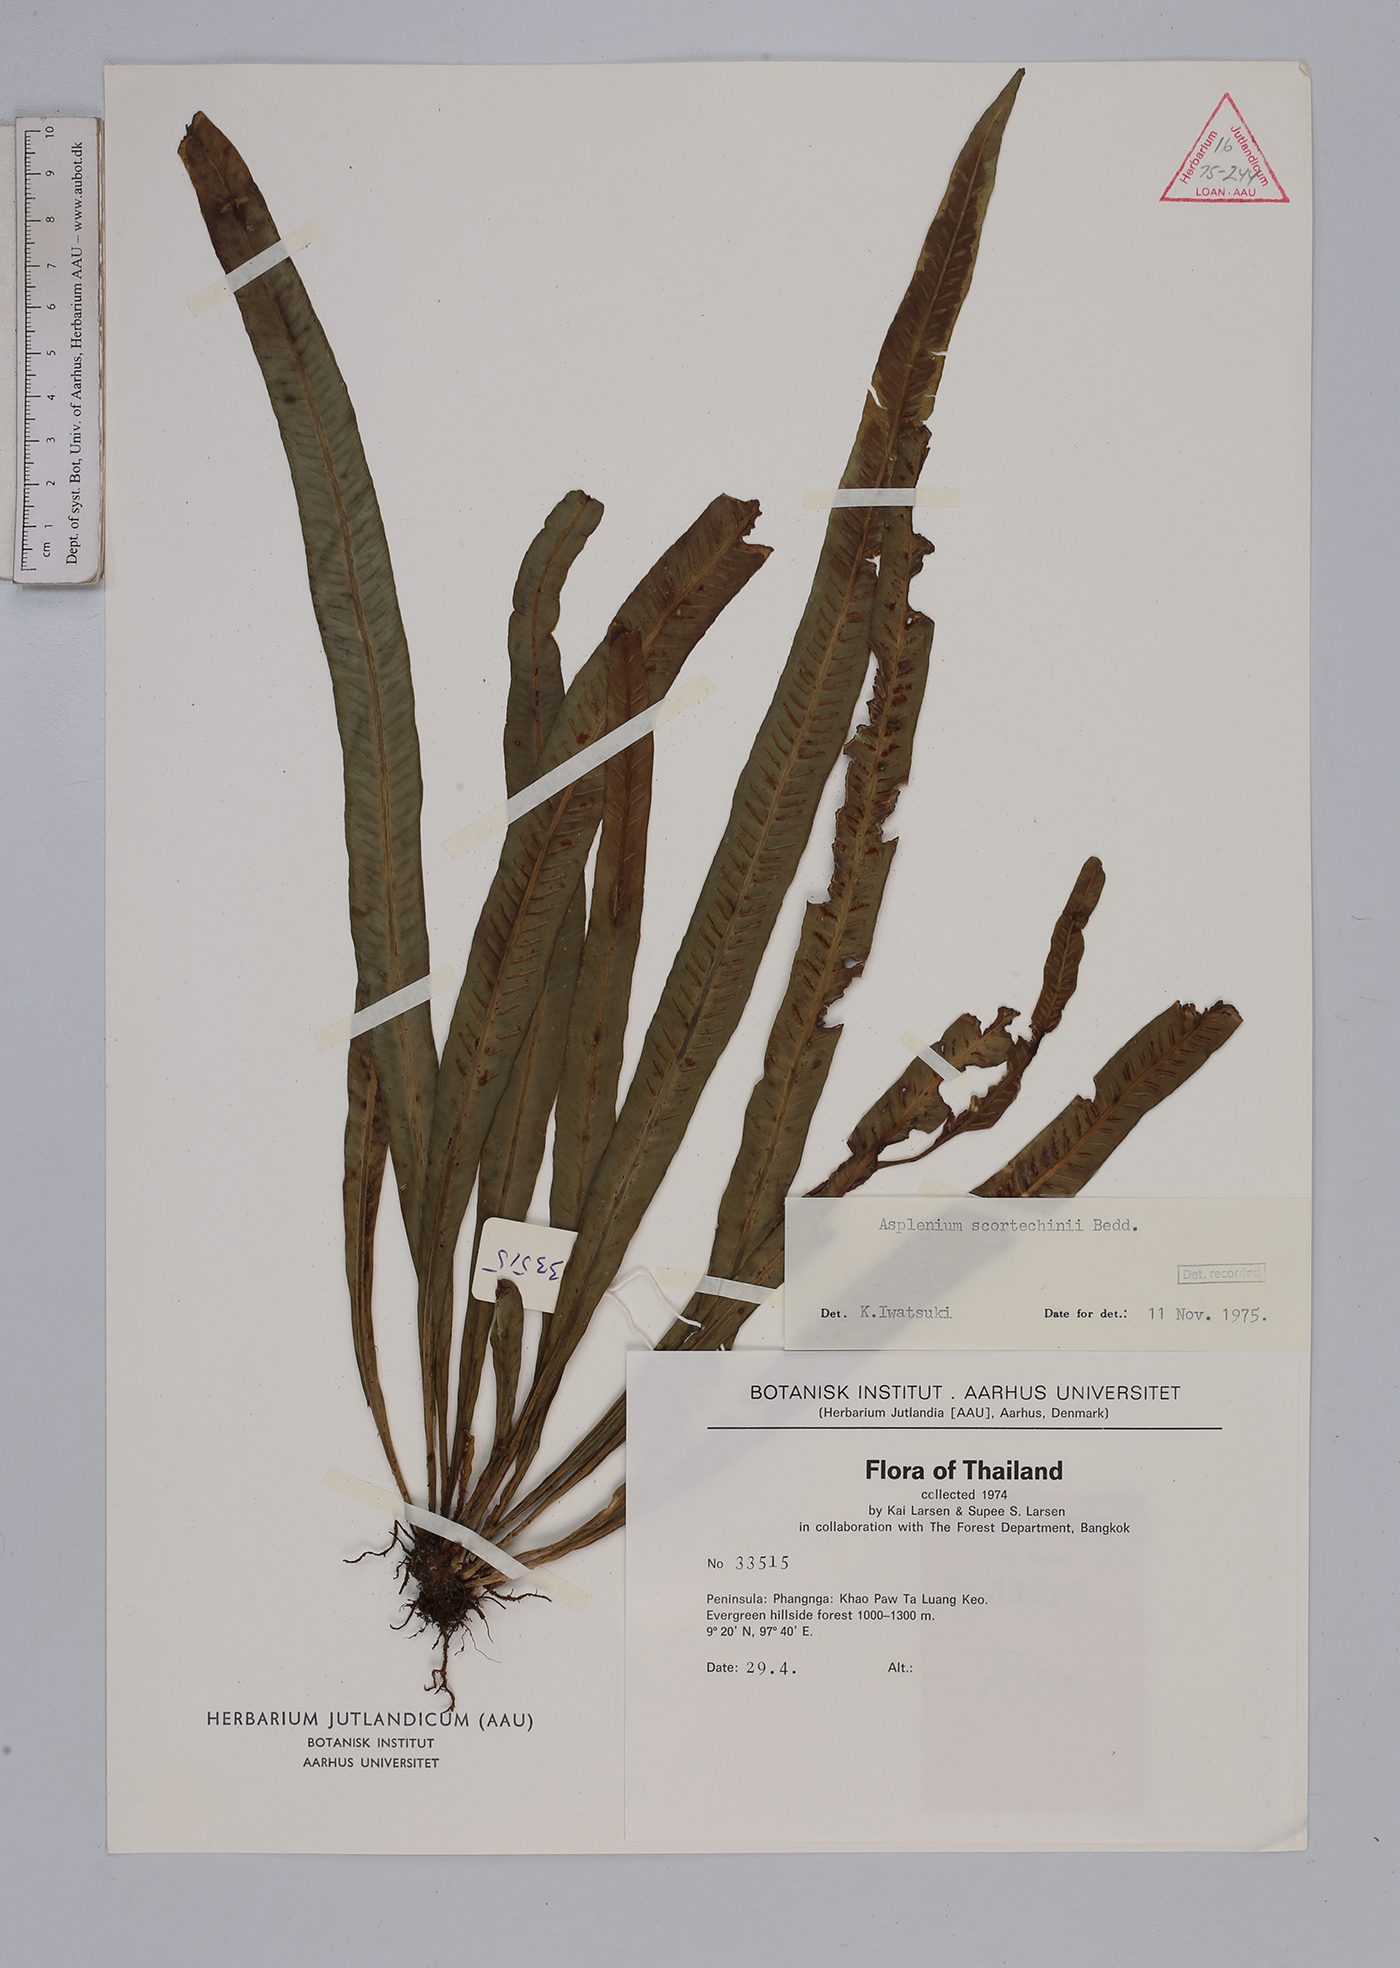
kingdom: Plantae
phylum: Tracheophyta
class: Polypodiopsida
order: Polypodiales
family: Aspleniaceae
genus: Asplenium
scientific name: Asplenium scortechinii
